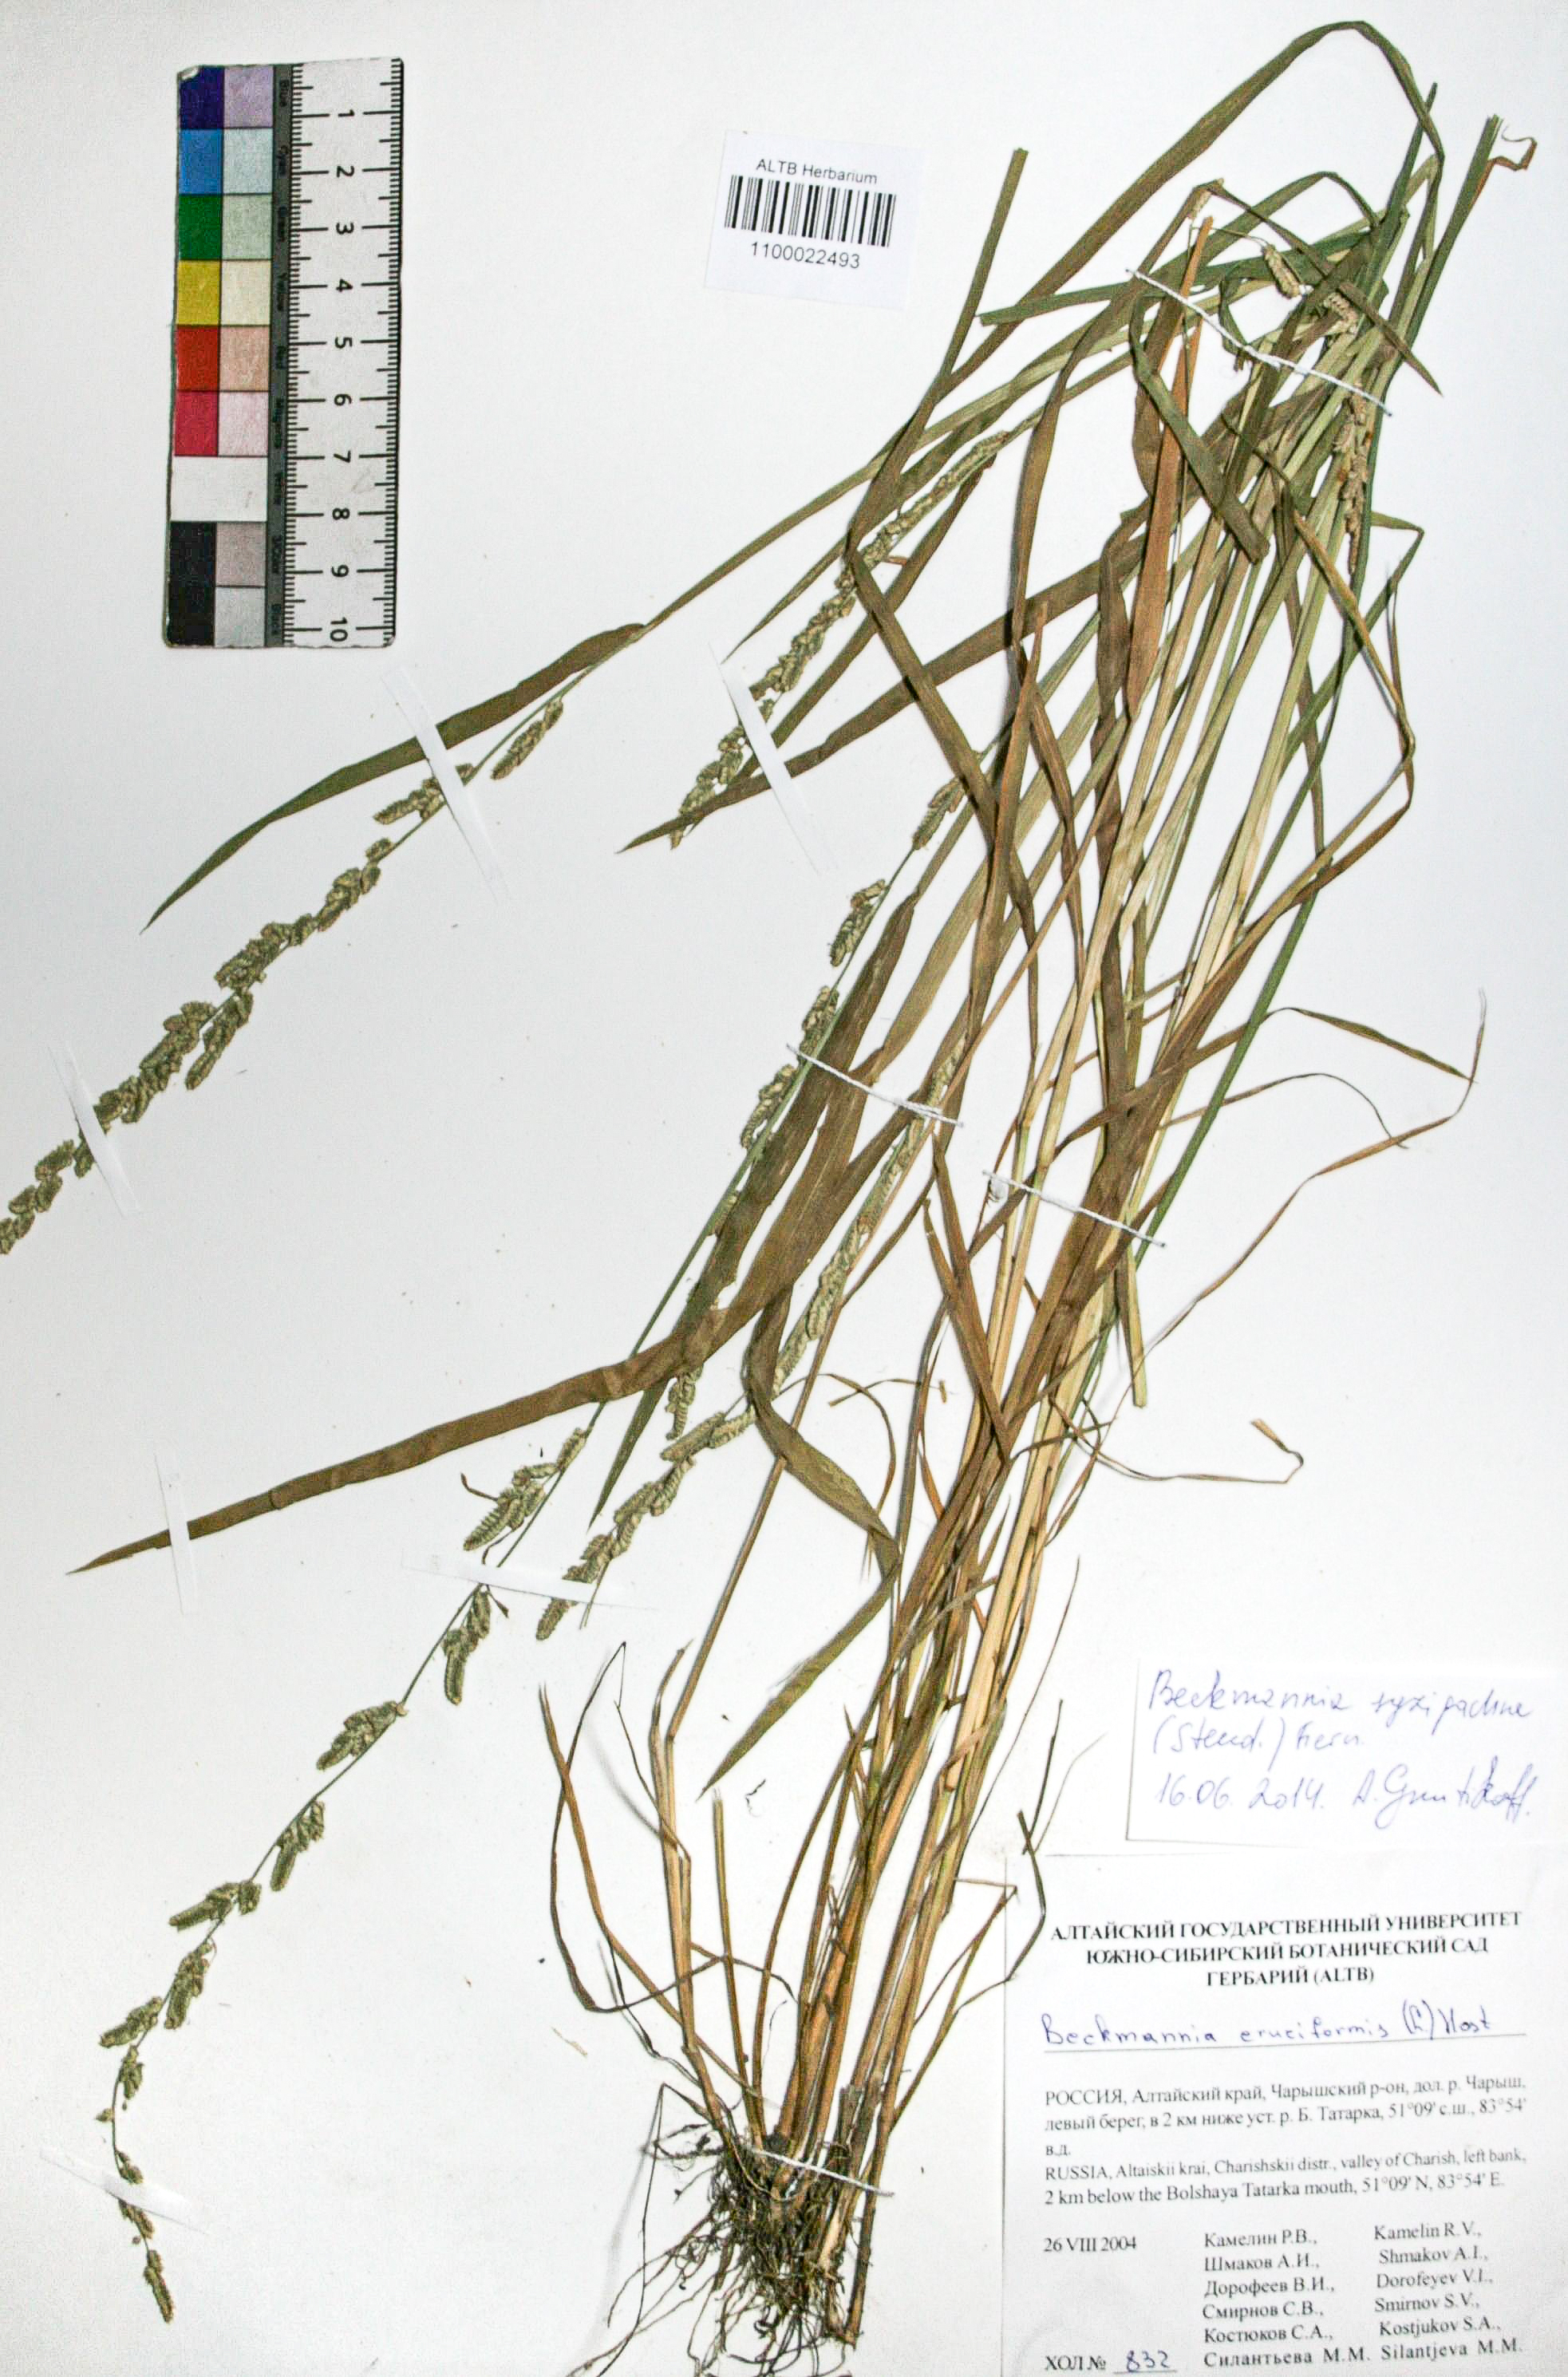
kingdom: Plantae
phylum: Tracheophyta
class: Liliopsida
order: Poales
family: Poaceae
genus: Beckmannia
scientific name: Beckmannia syzigachne
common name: American slough-grass
